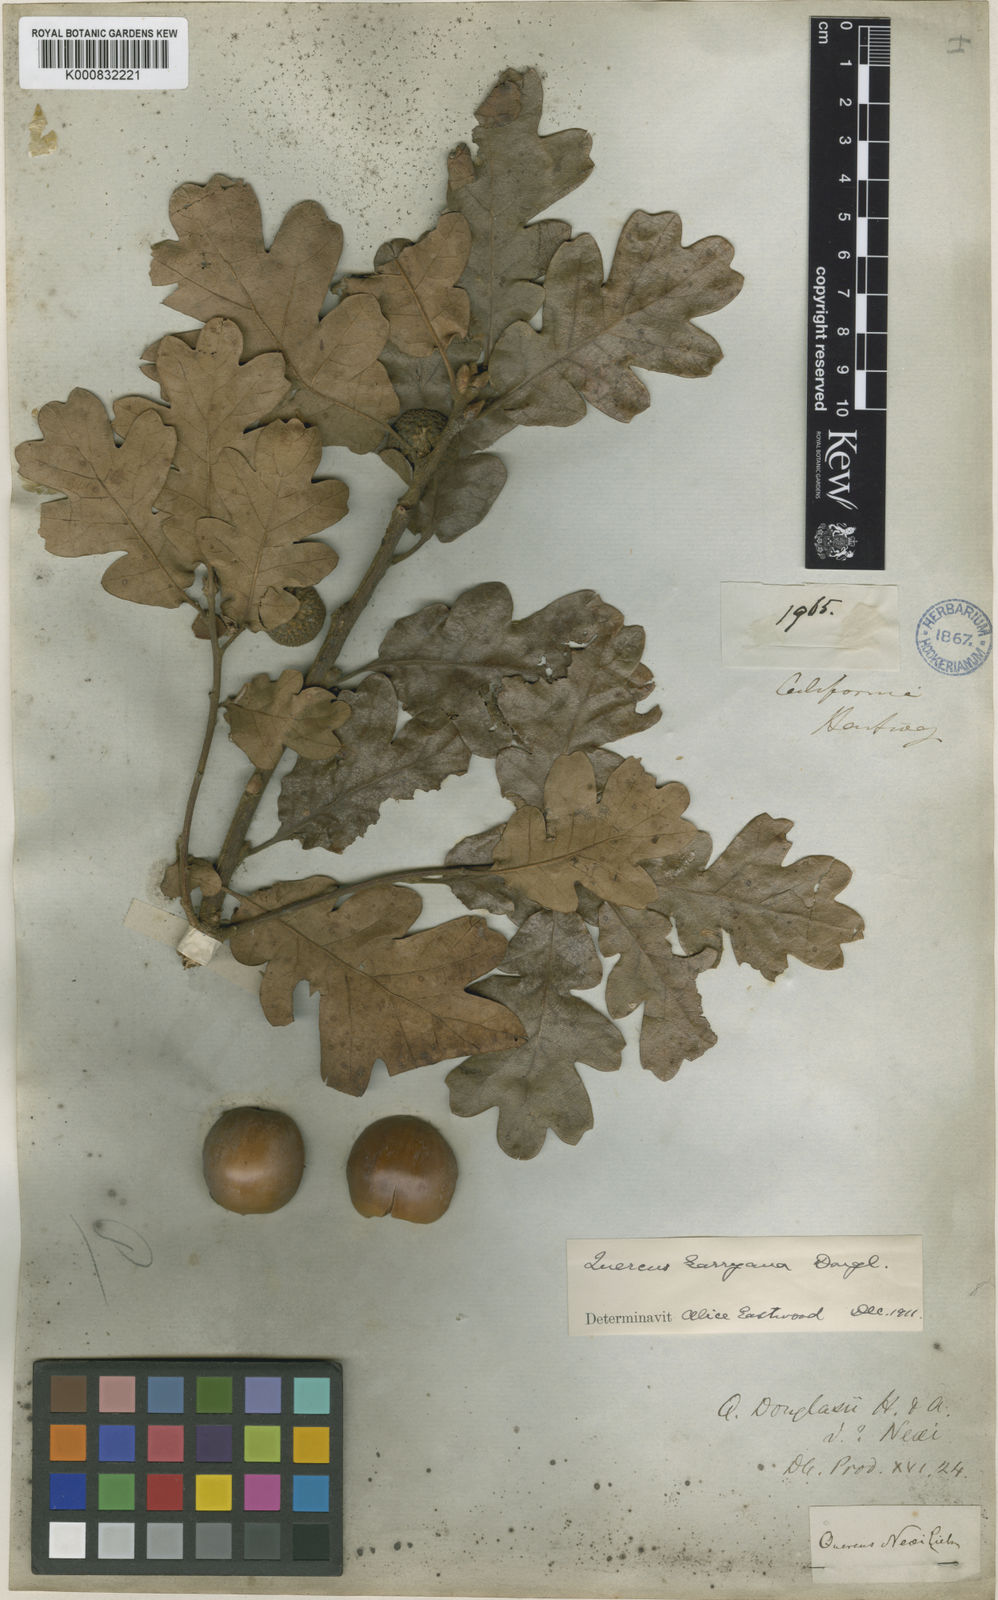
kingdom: Plantae
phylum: Tracheophyta
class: Magnoliopsida
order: Fagales
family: Fagaceae
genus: Quercus
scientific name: Quercus garryana
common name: Garry oak
